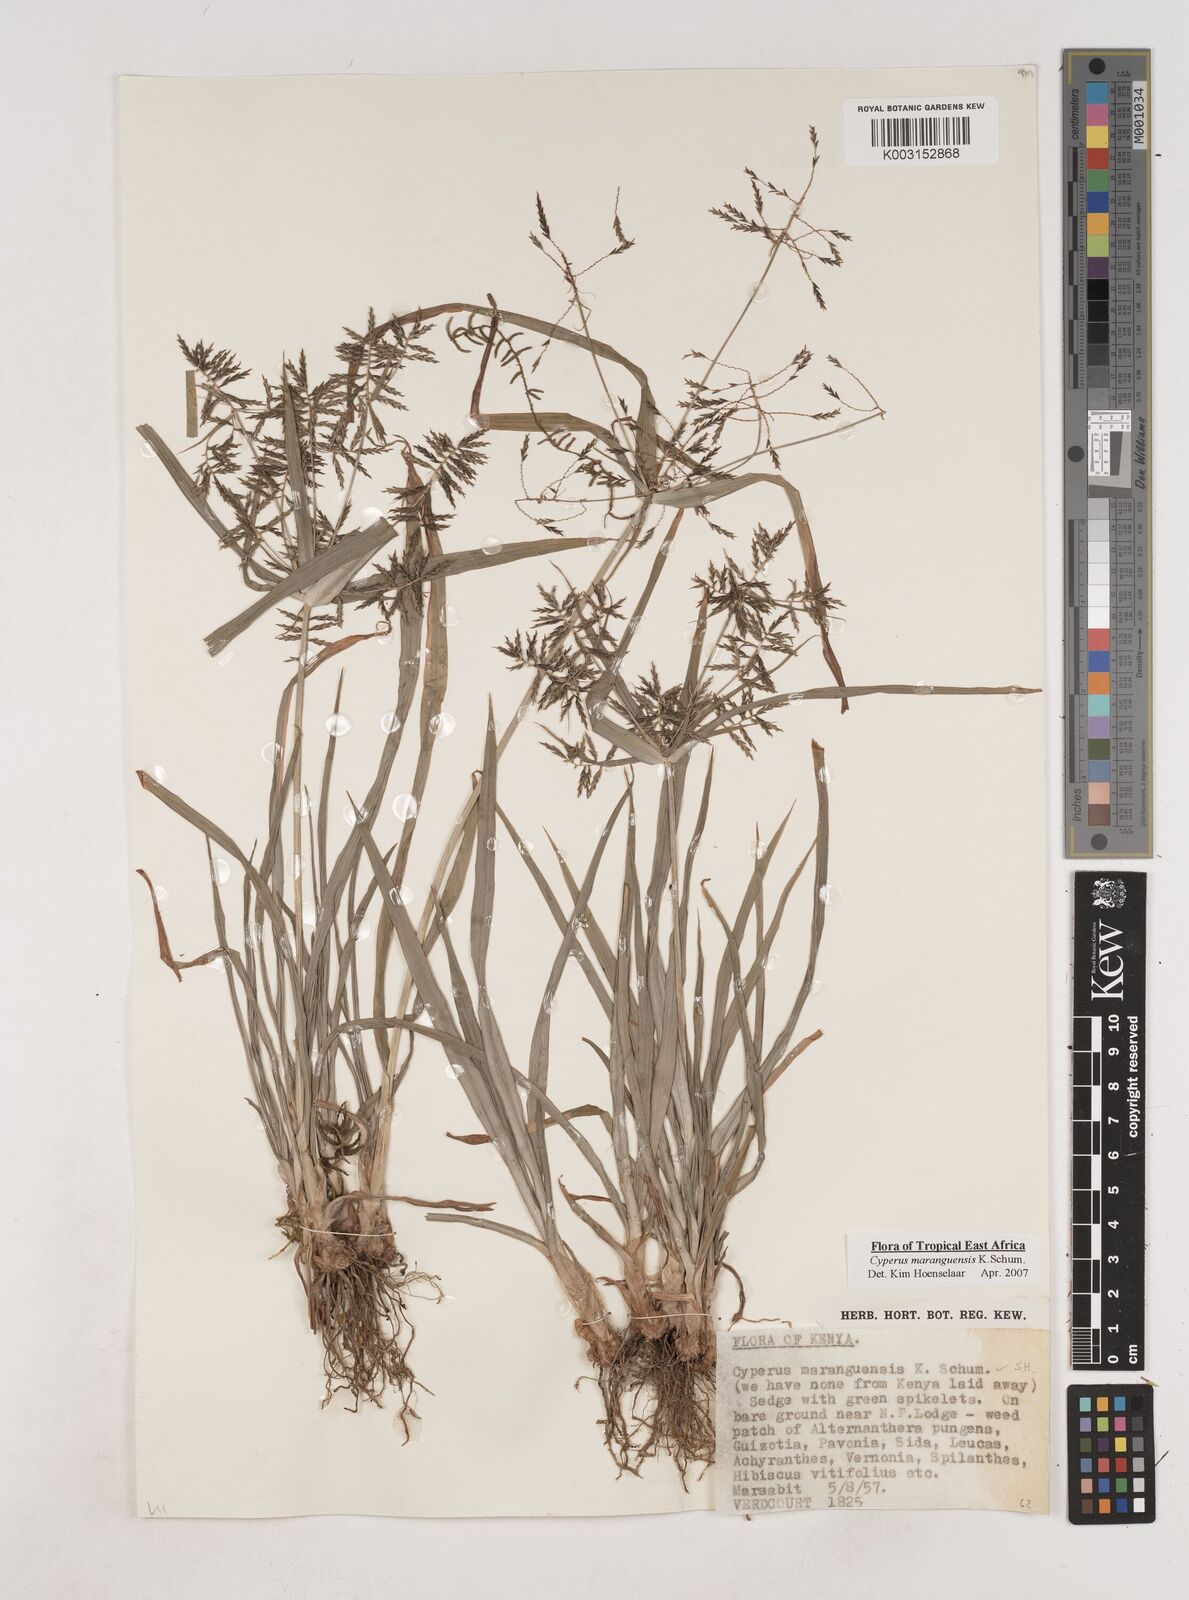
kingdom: Plantae
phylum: Tracheophyta
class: Liliopsida
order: Poales
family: Cyperaceae
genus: Cyperus
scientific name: Cyperus maranguensis
